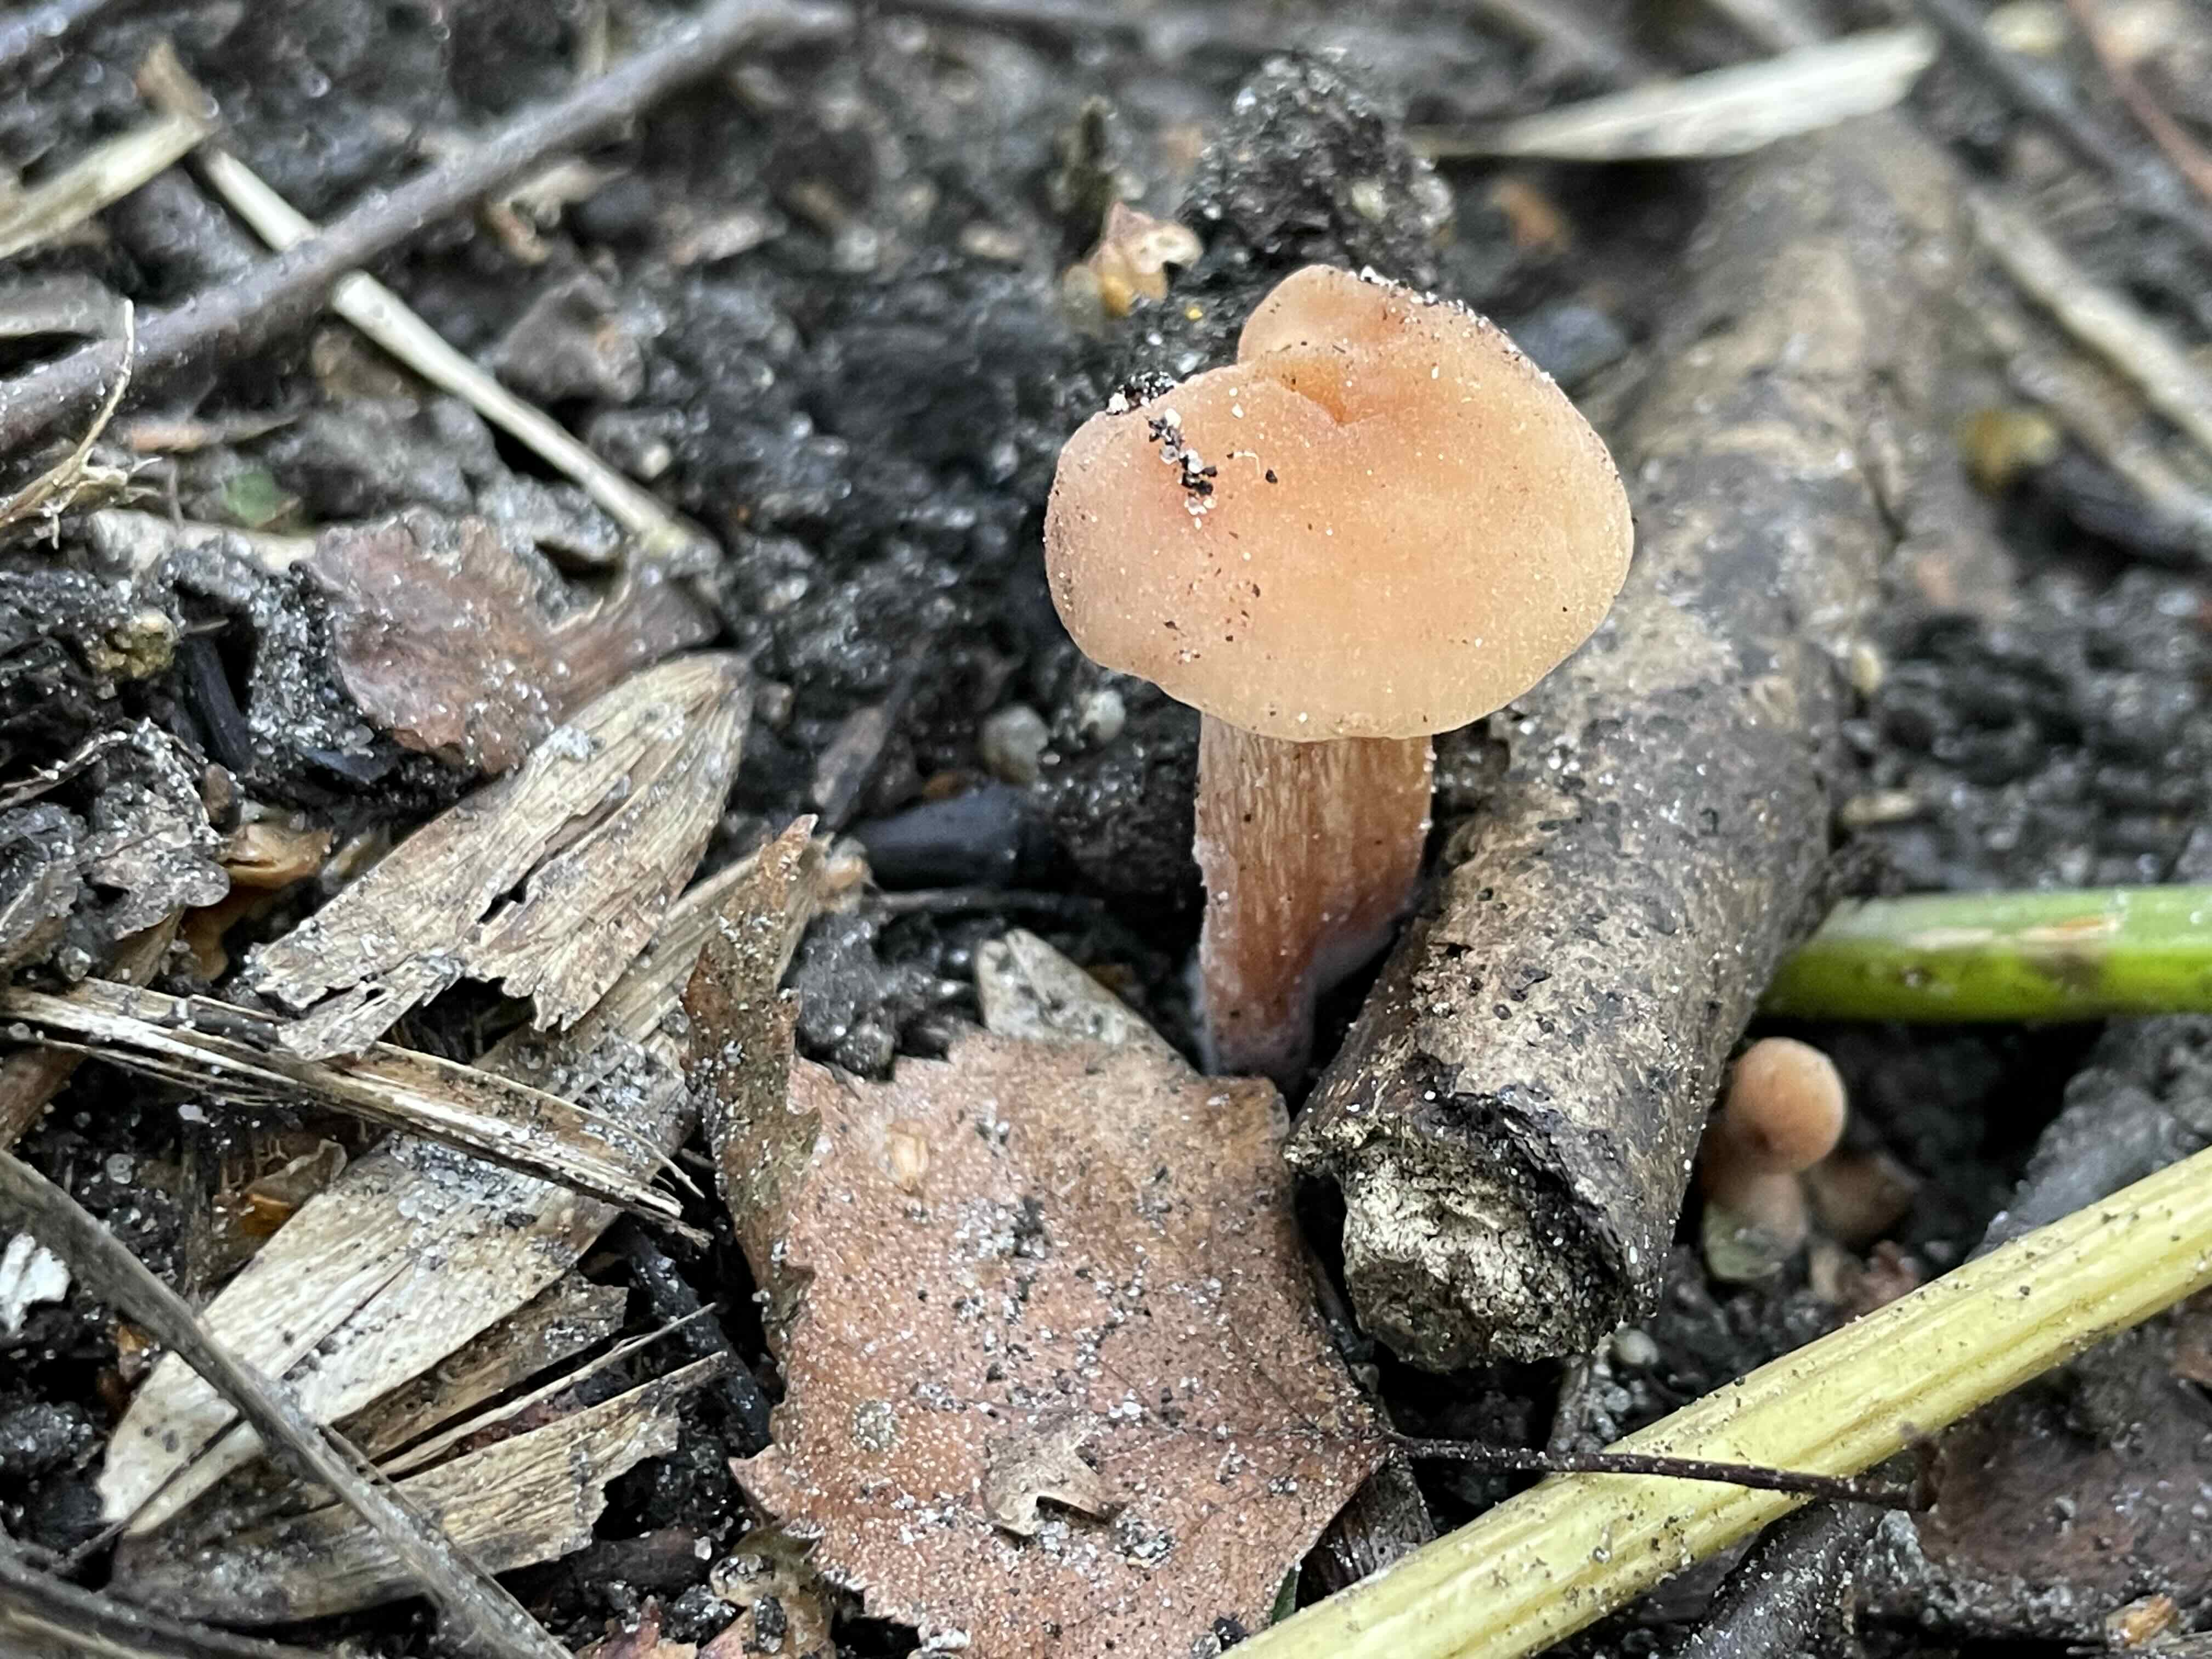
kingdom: Fungi
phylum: Basidiomycota
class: Agaricomycetes
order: Agaricales
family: Hydnangiaceae
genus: Laccaria
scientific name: Laccaria laccata
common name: rød ametysthat
